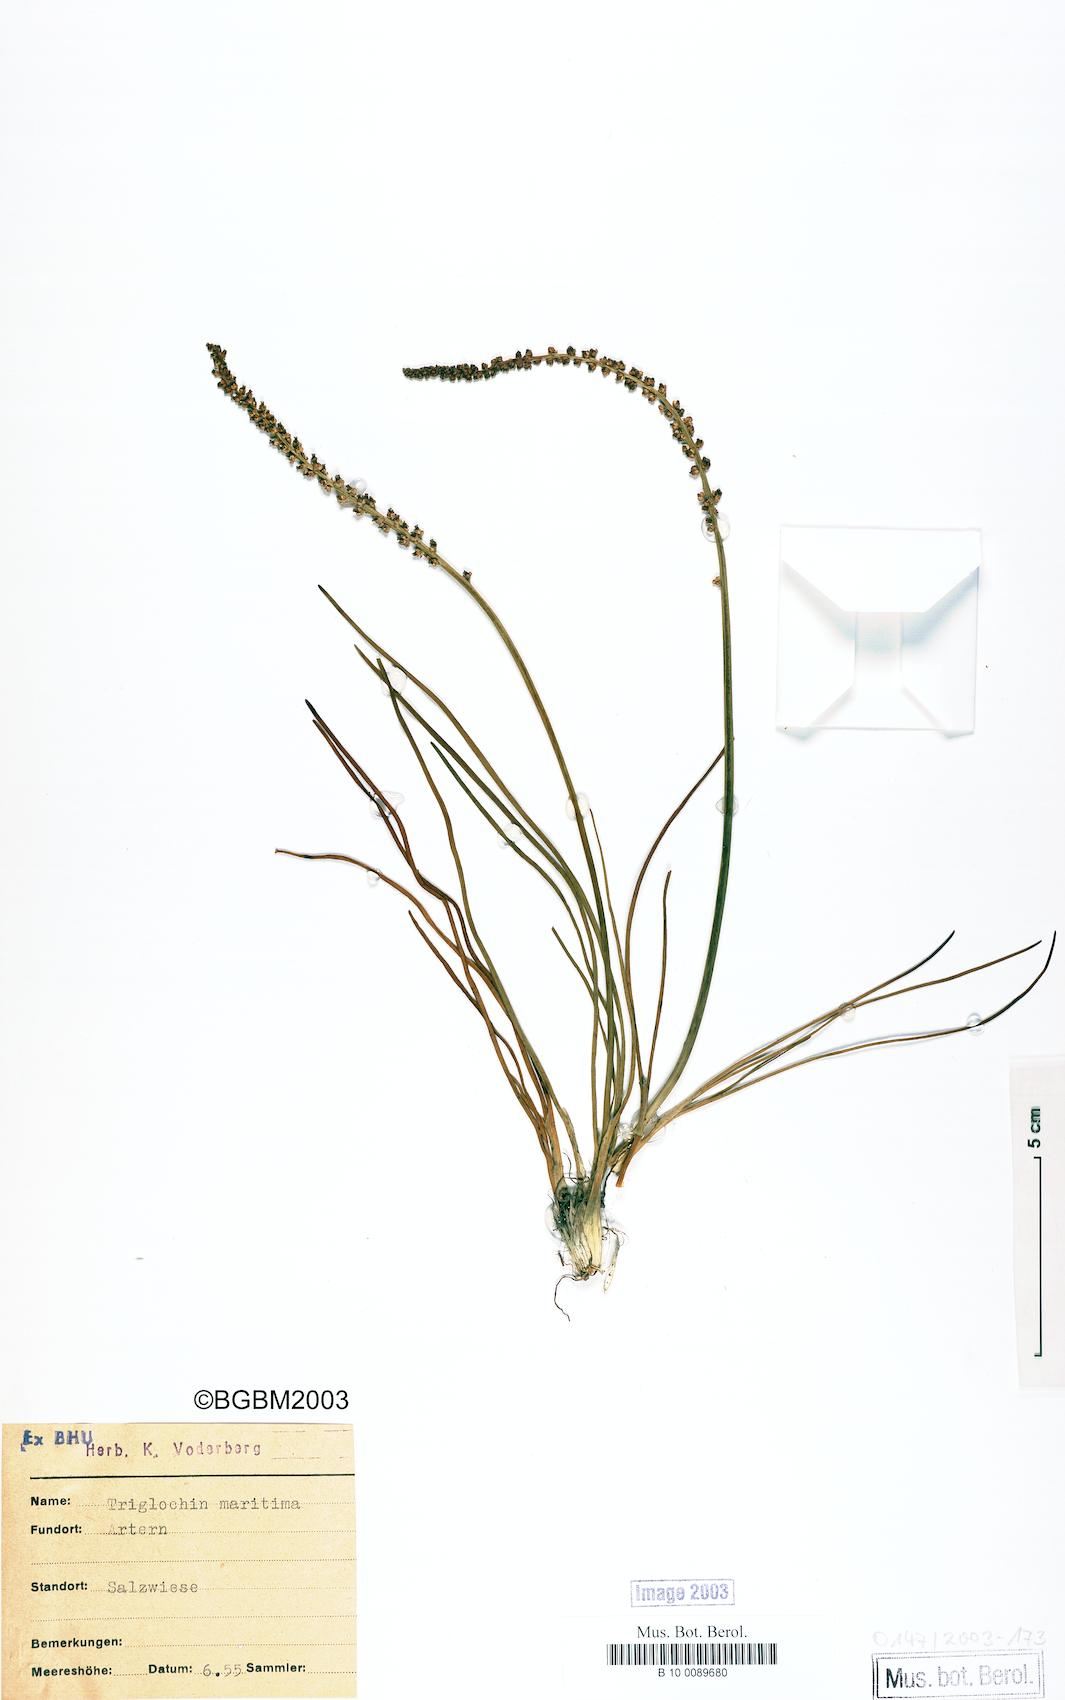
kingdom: Plantae
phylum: Tracheophyta
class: Liliopsida
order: Alismatales
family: Juncaginaceae
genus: Triglochin
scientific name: Triglochin maritima
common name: Sea arrowgrass
